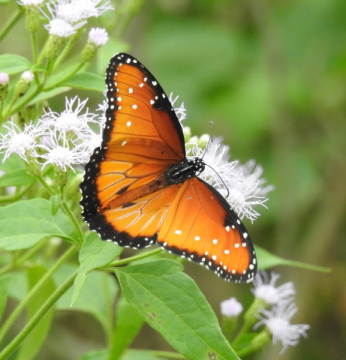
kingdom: Animalia
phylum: Arthropoda
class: Insecta
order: Lepidoptera
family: Nymphalidae
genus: Danaus
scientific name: Danaus gilippus
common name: Queen
